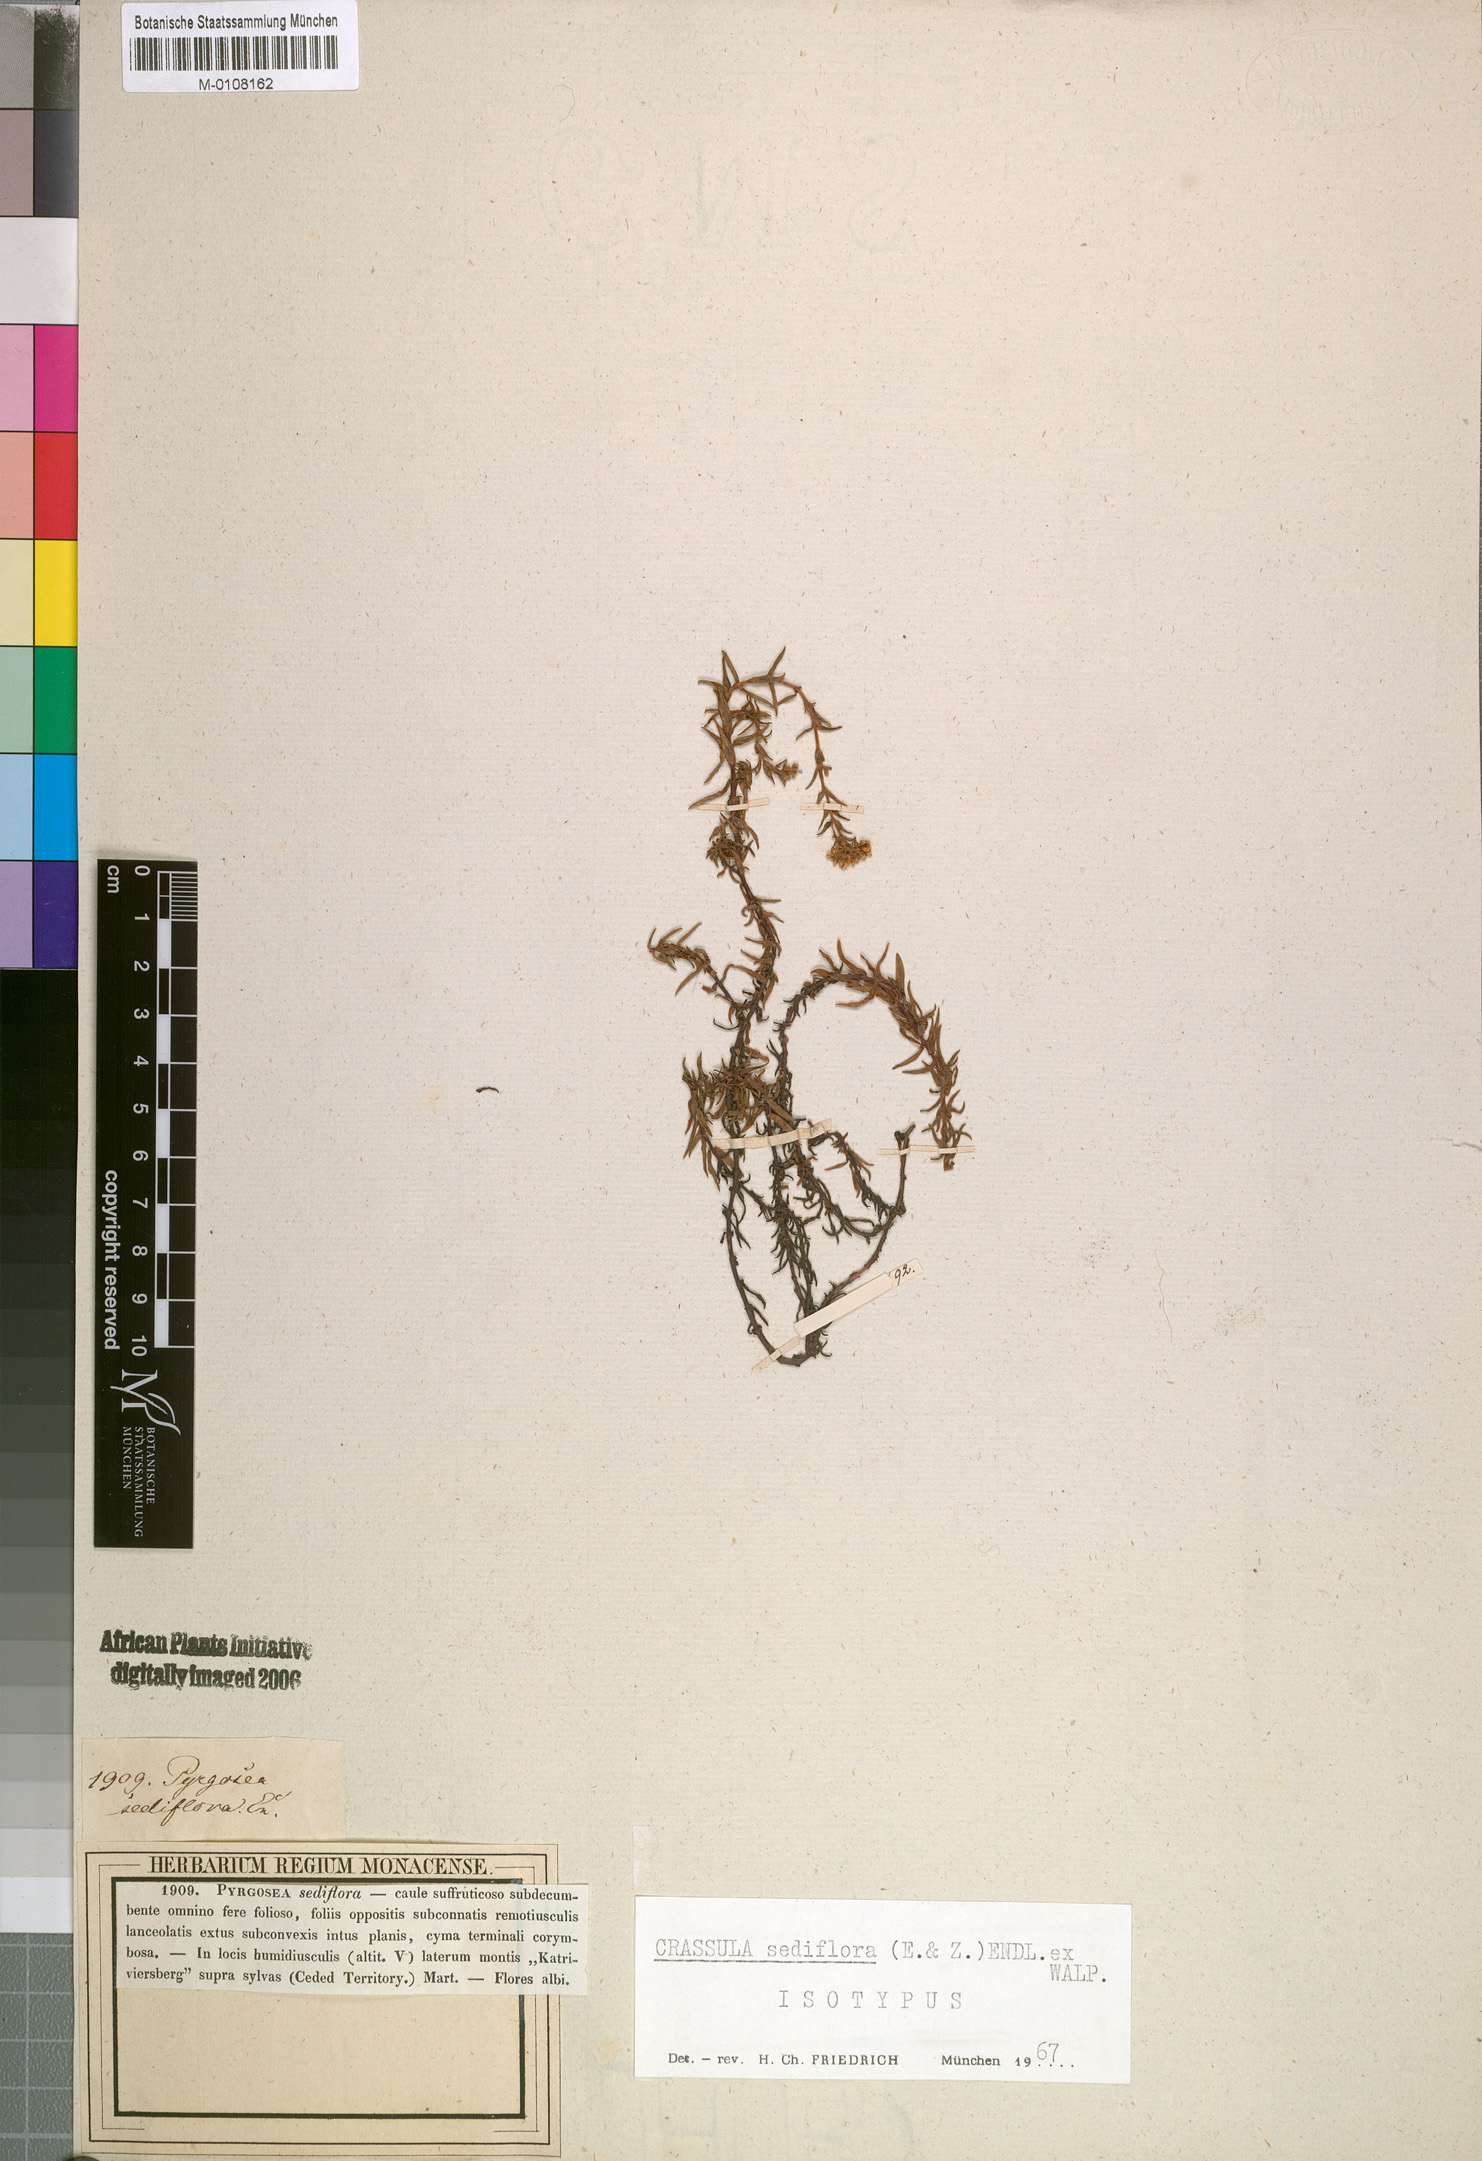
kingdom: Plantae
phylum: Tracheophyta
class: Magnoliopsida
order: Saxifragales
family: Crassulaceae
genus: Crassula
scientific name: Crassula sediflora
